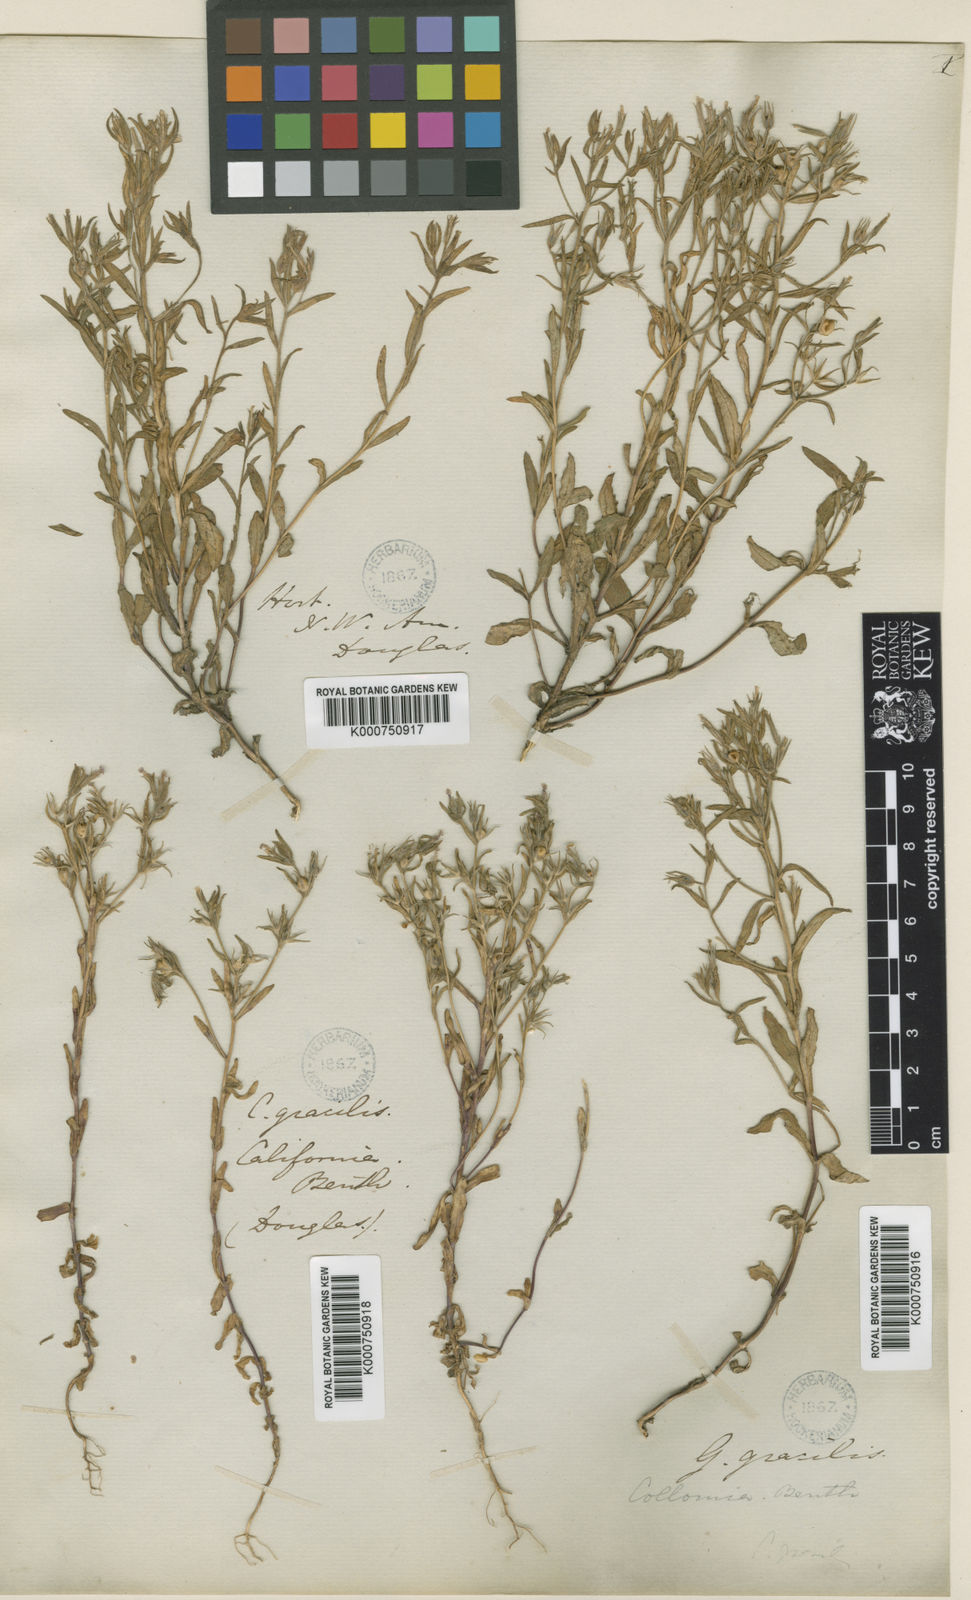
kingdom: Plantae
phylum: Tracheophyta
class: Magnoliopsida
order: Ericales
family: Polemoniaceae
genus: Phlox
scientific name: Phlox gracilis
